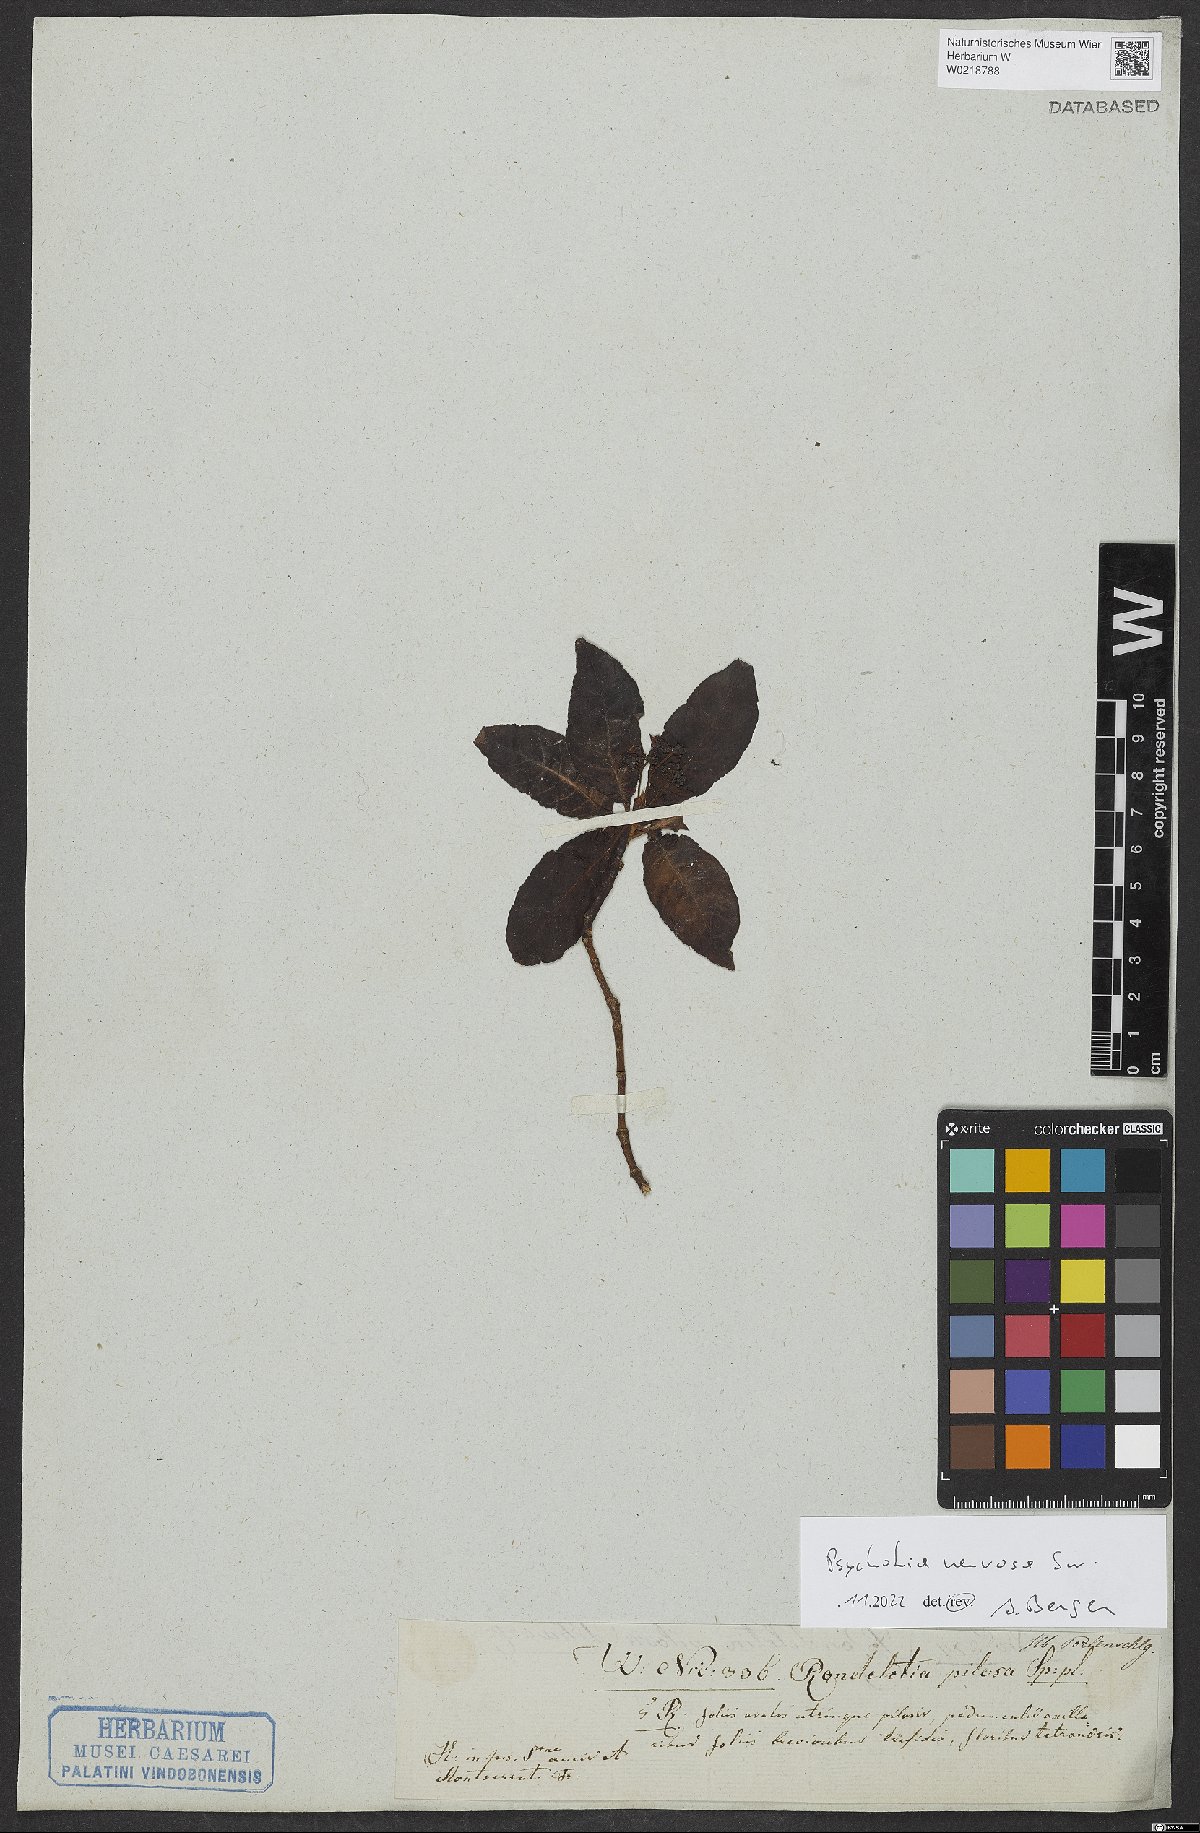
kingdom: Plantae
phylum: Tracheophyta
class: Magnoliopsida
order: Gentianales
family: Rubiaceae
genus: Psychotria
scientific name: Psychotria nervosa
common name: Bastard cankerberry
